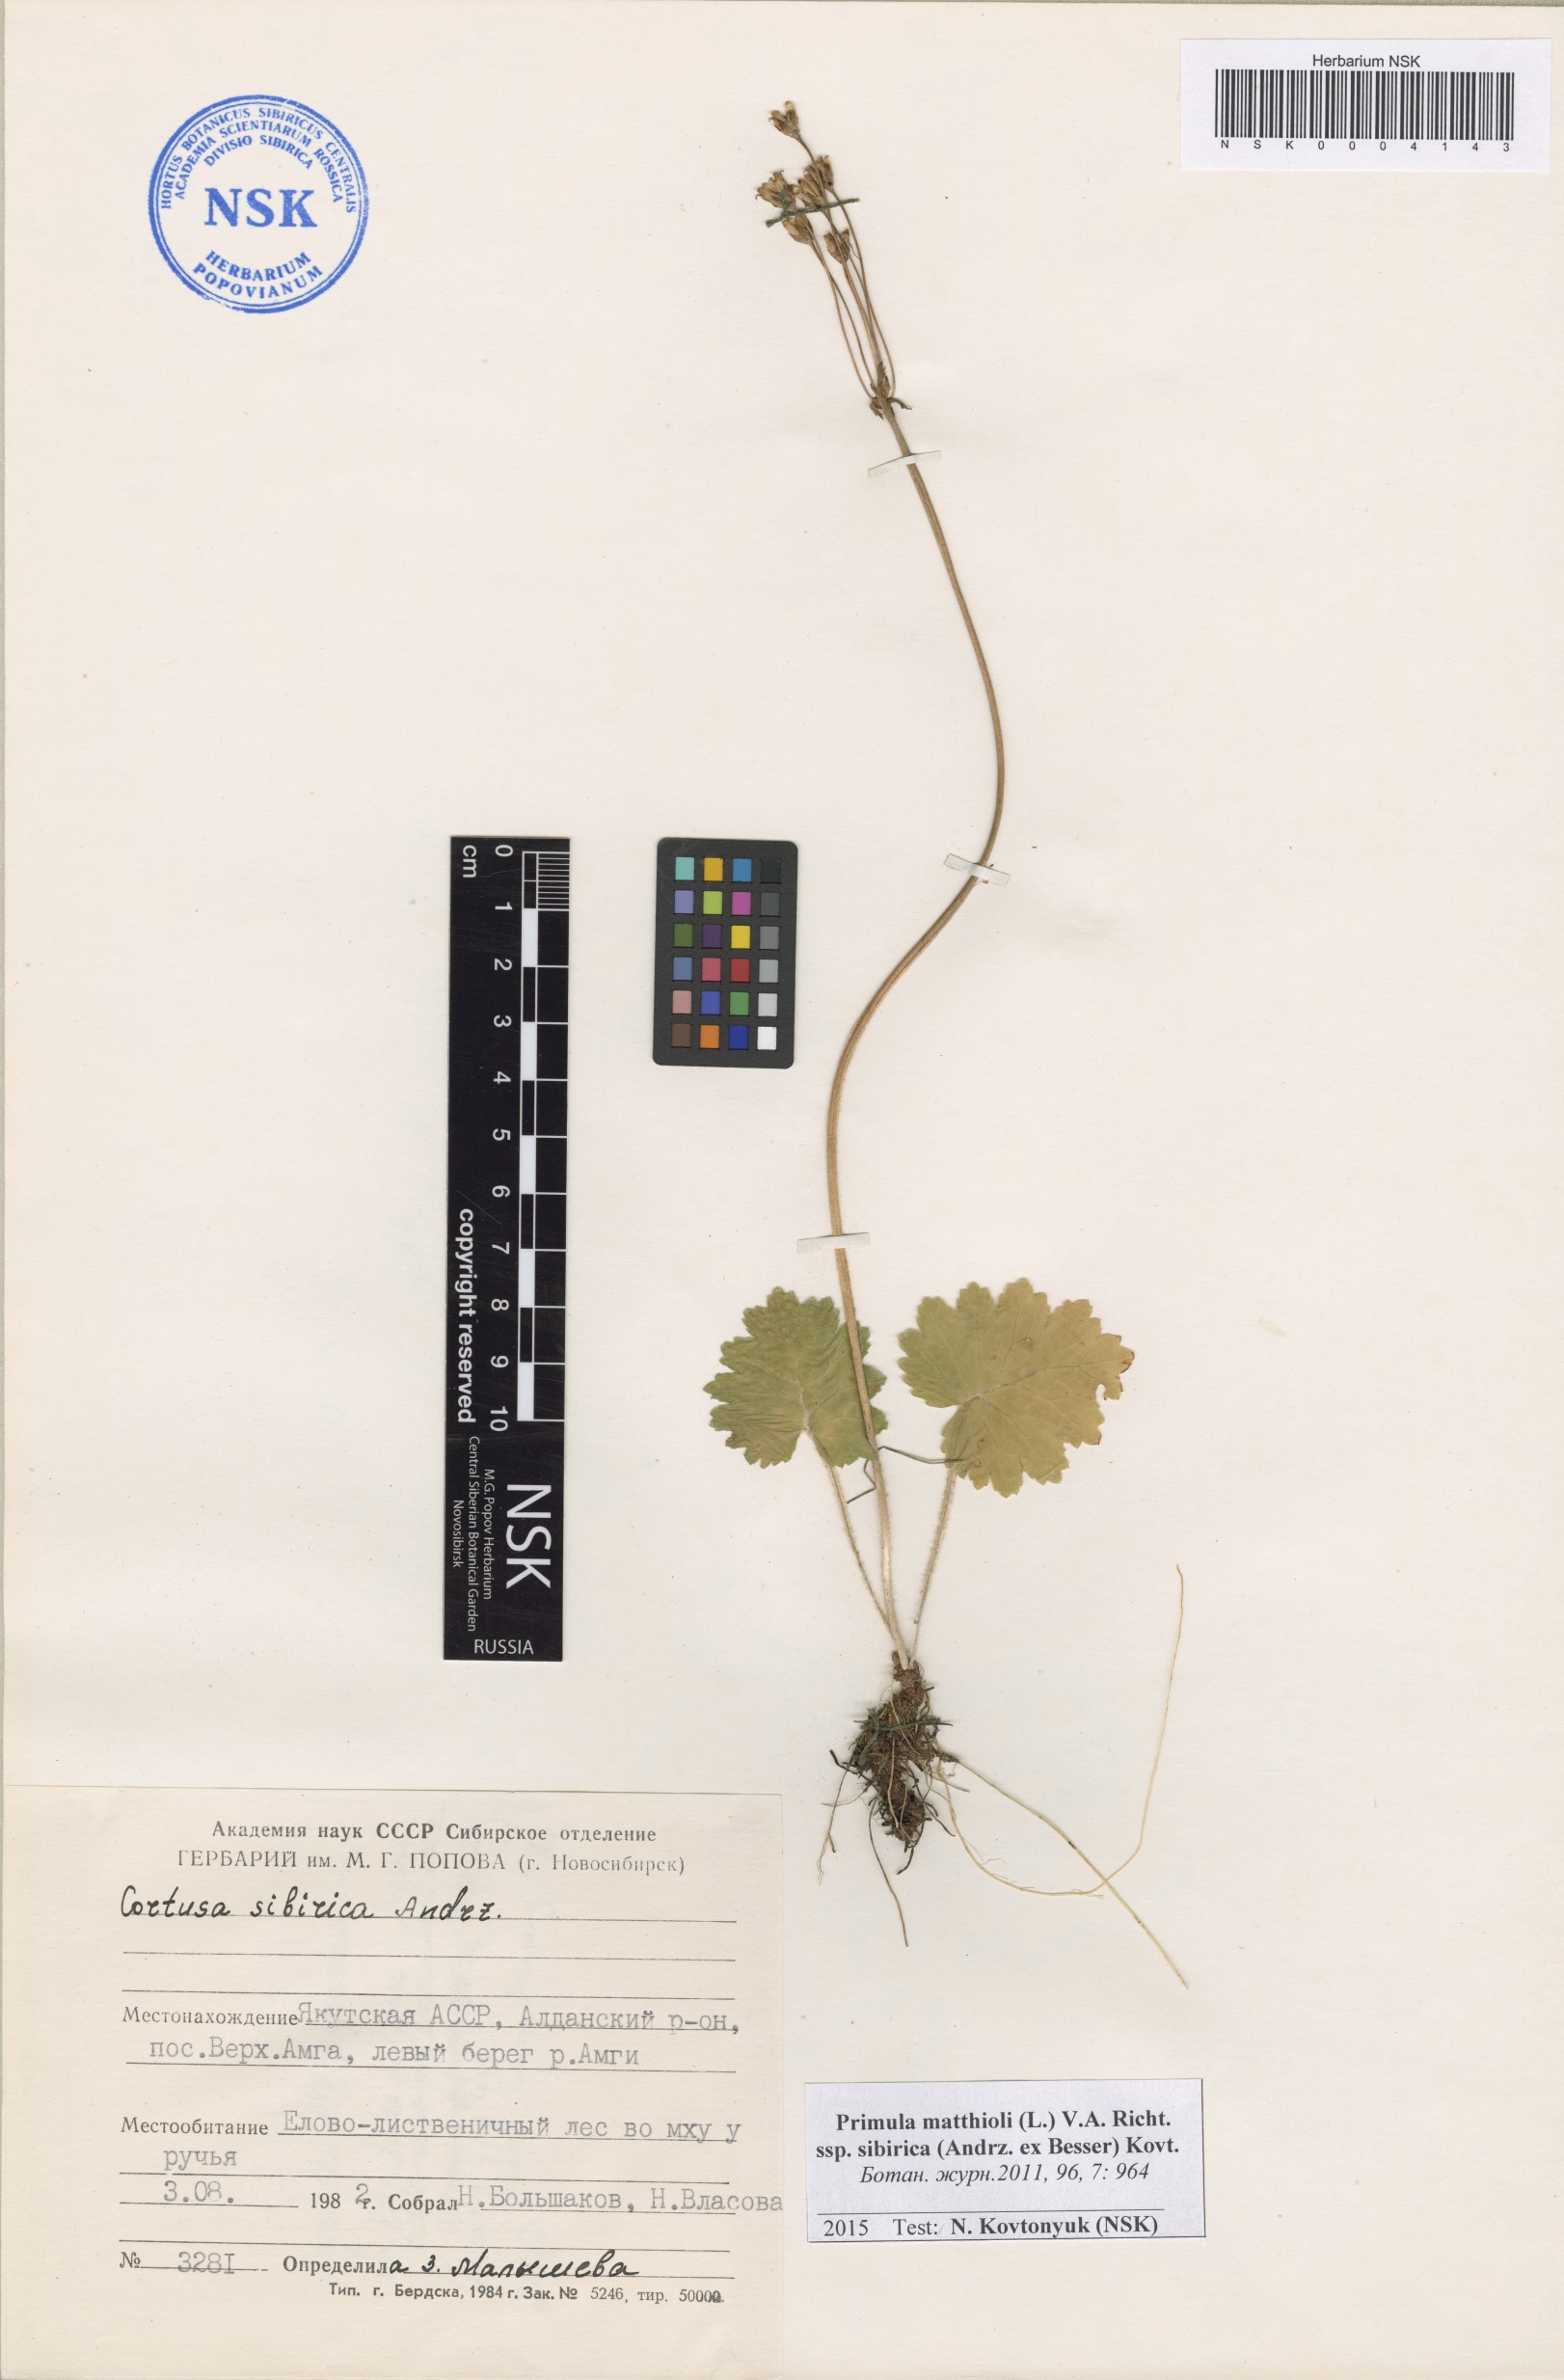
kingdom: Plantae
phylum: Tracheophyta
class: Magnoliopsida
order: Ericales
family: Primulaceae
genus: Primula
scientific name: Primula matthioli
